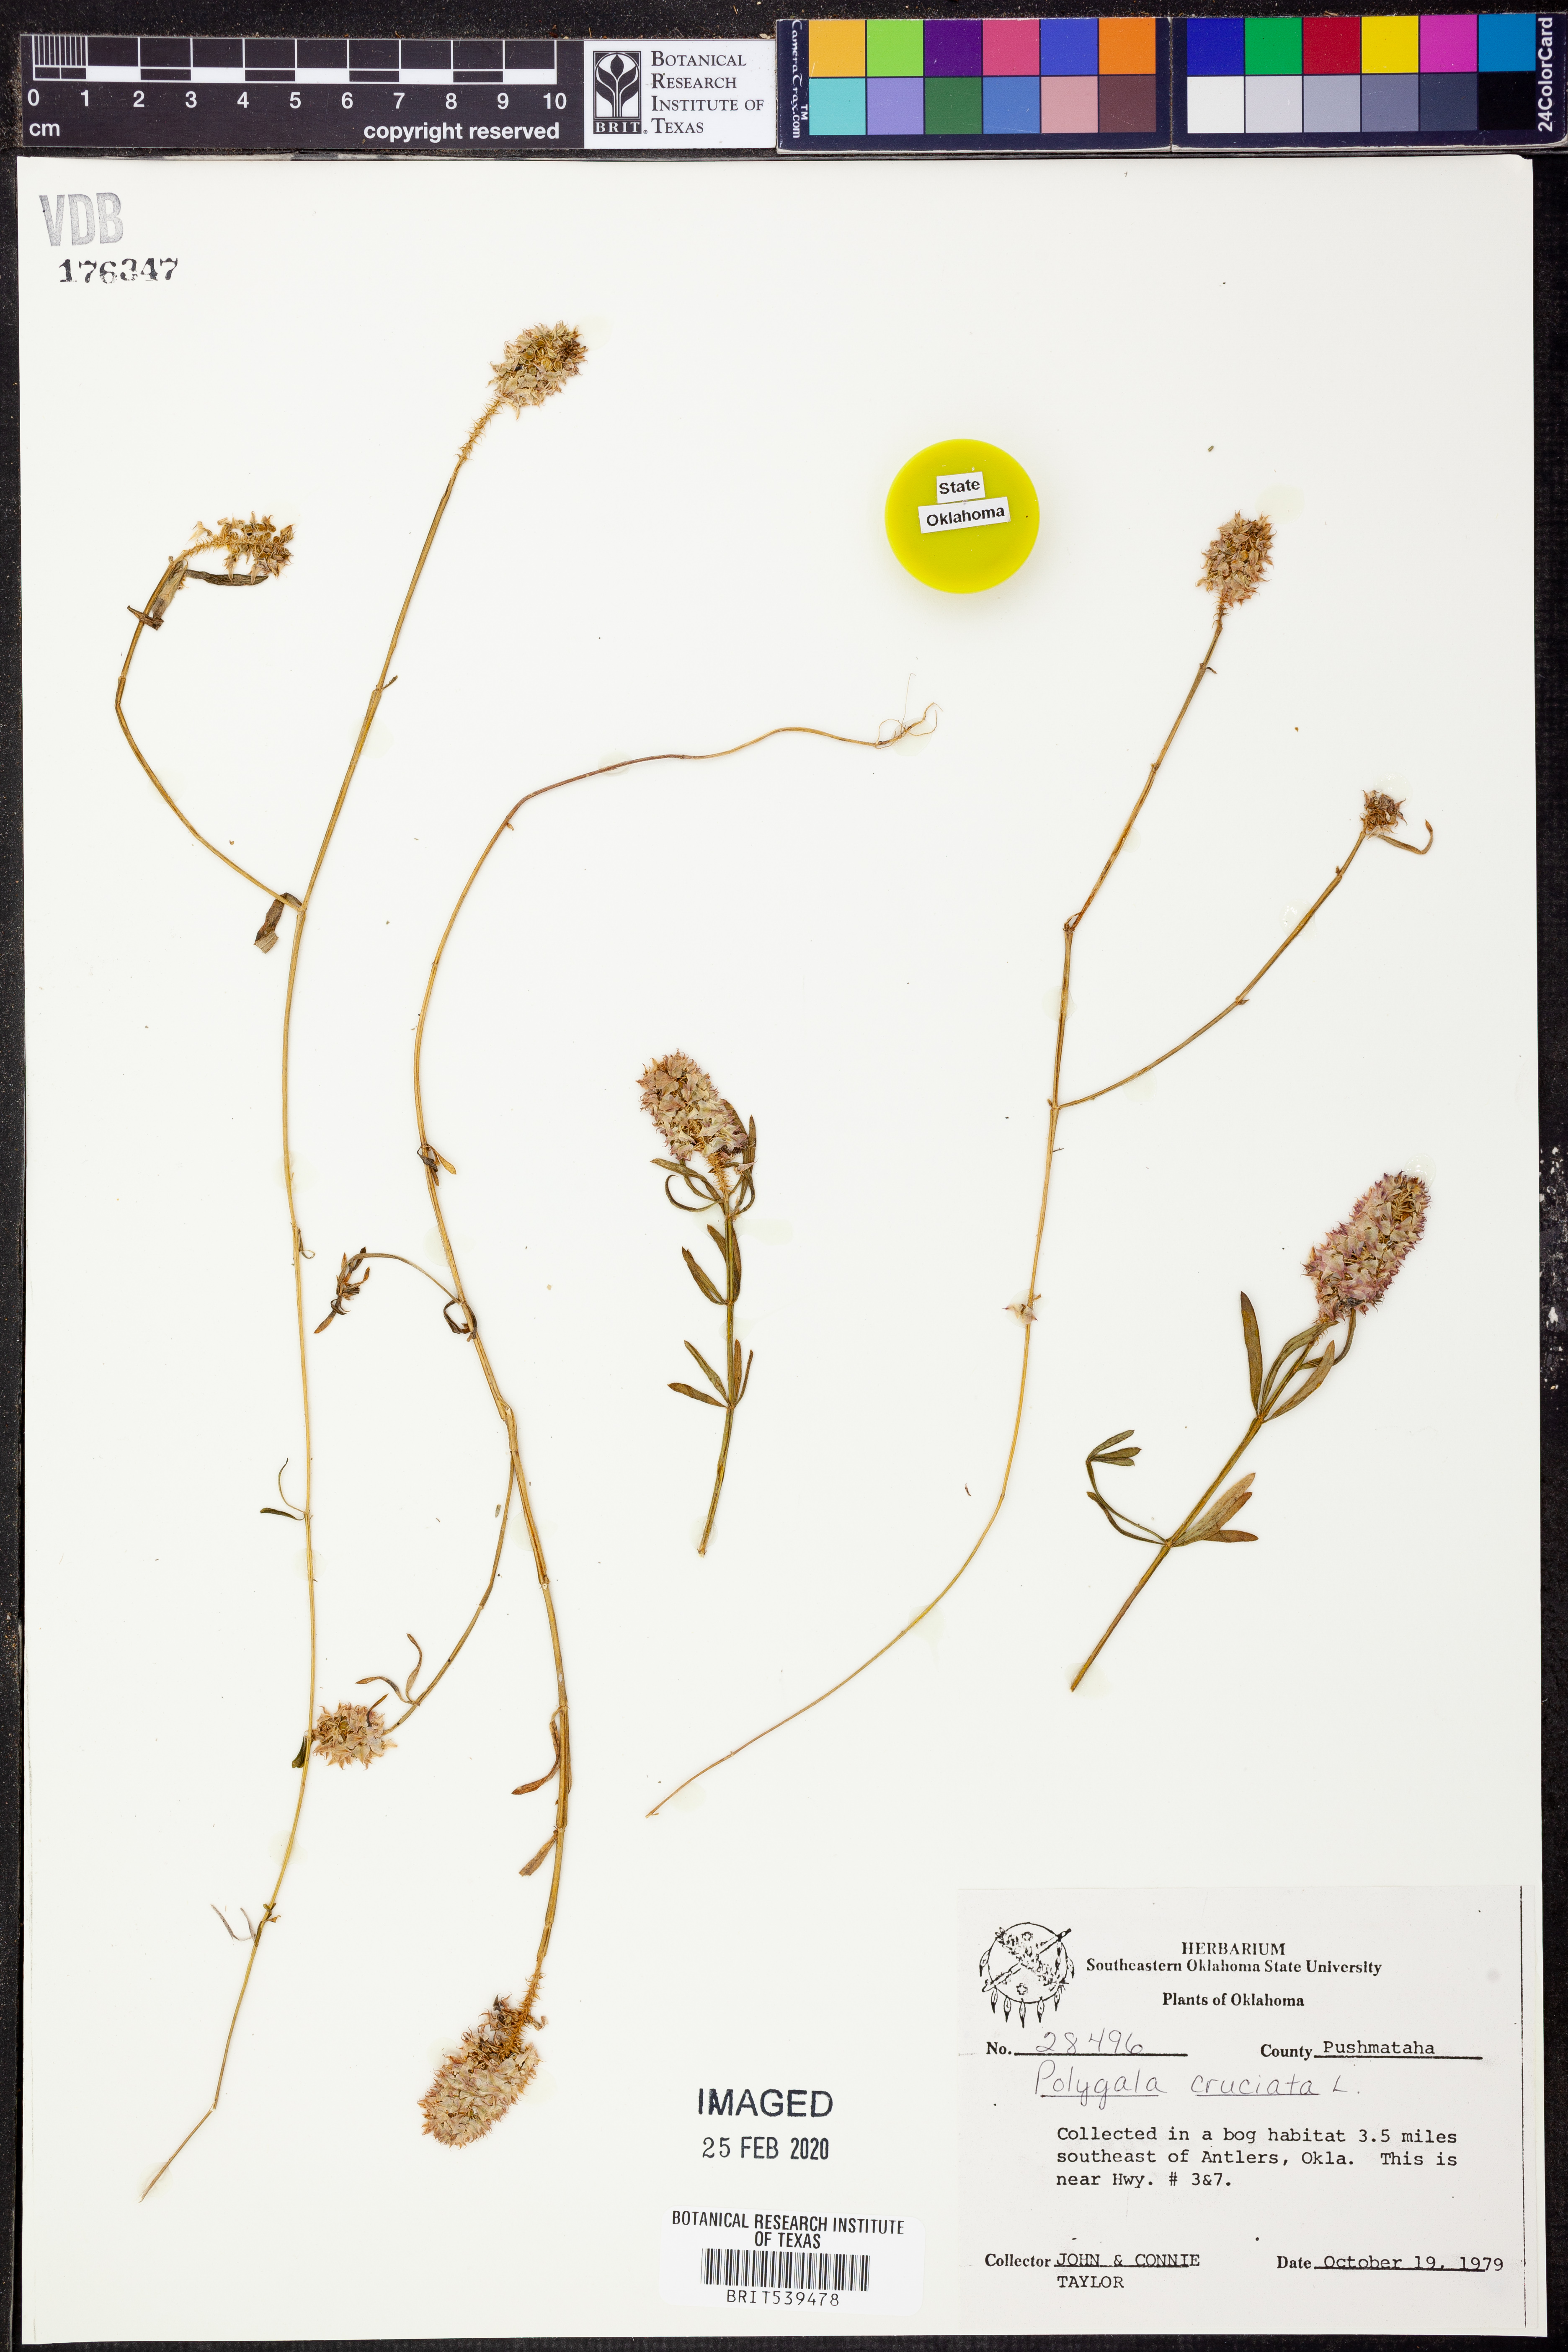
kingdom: Plantae
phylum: Tracheophyta
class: Magnoliopsida
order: Fabales
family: Polygalaceae
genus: Polygala
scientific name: Polygala cruciata
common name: Drumheads
